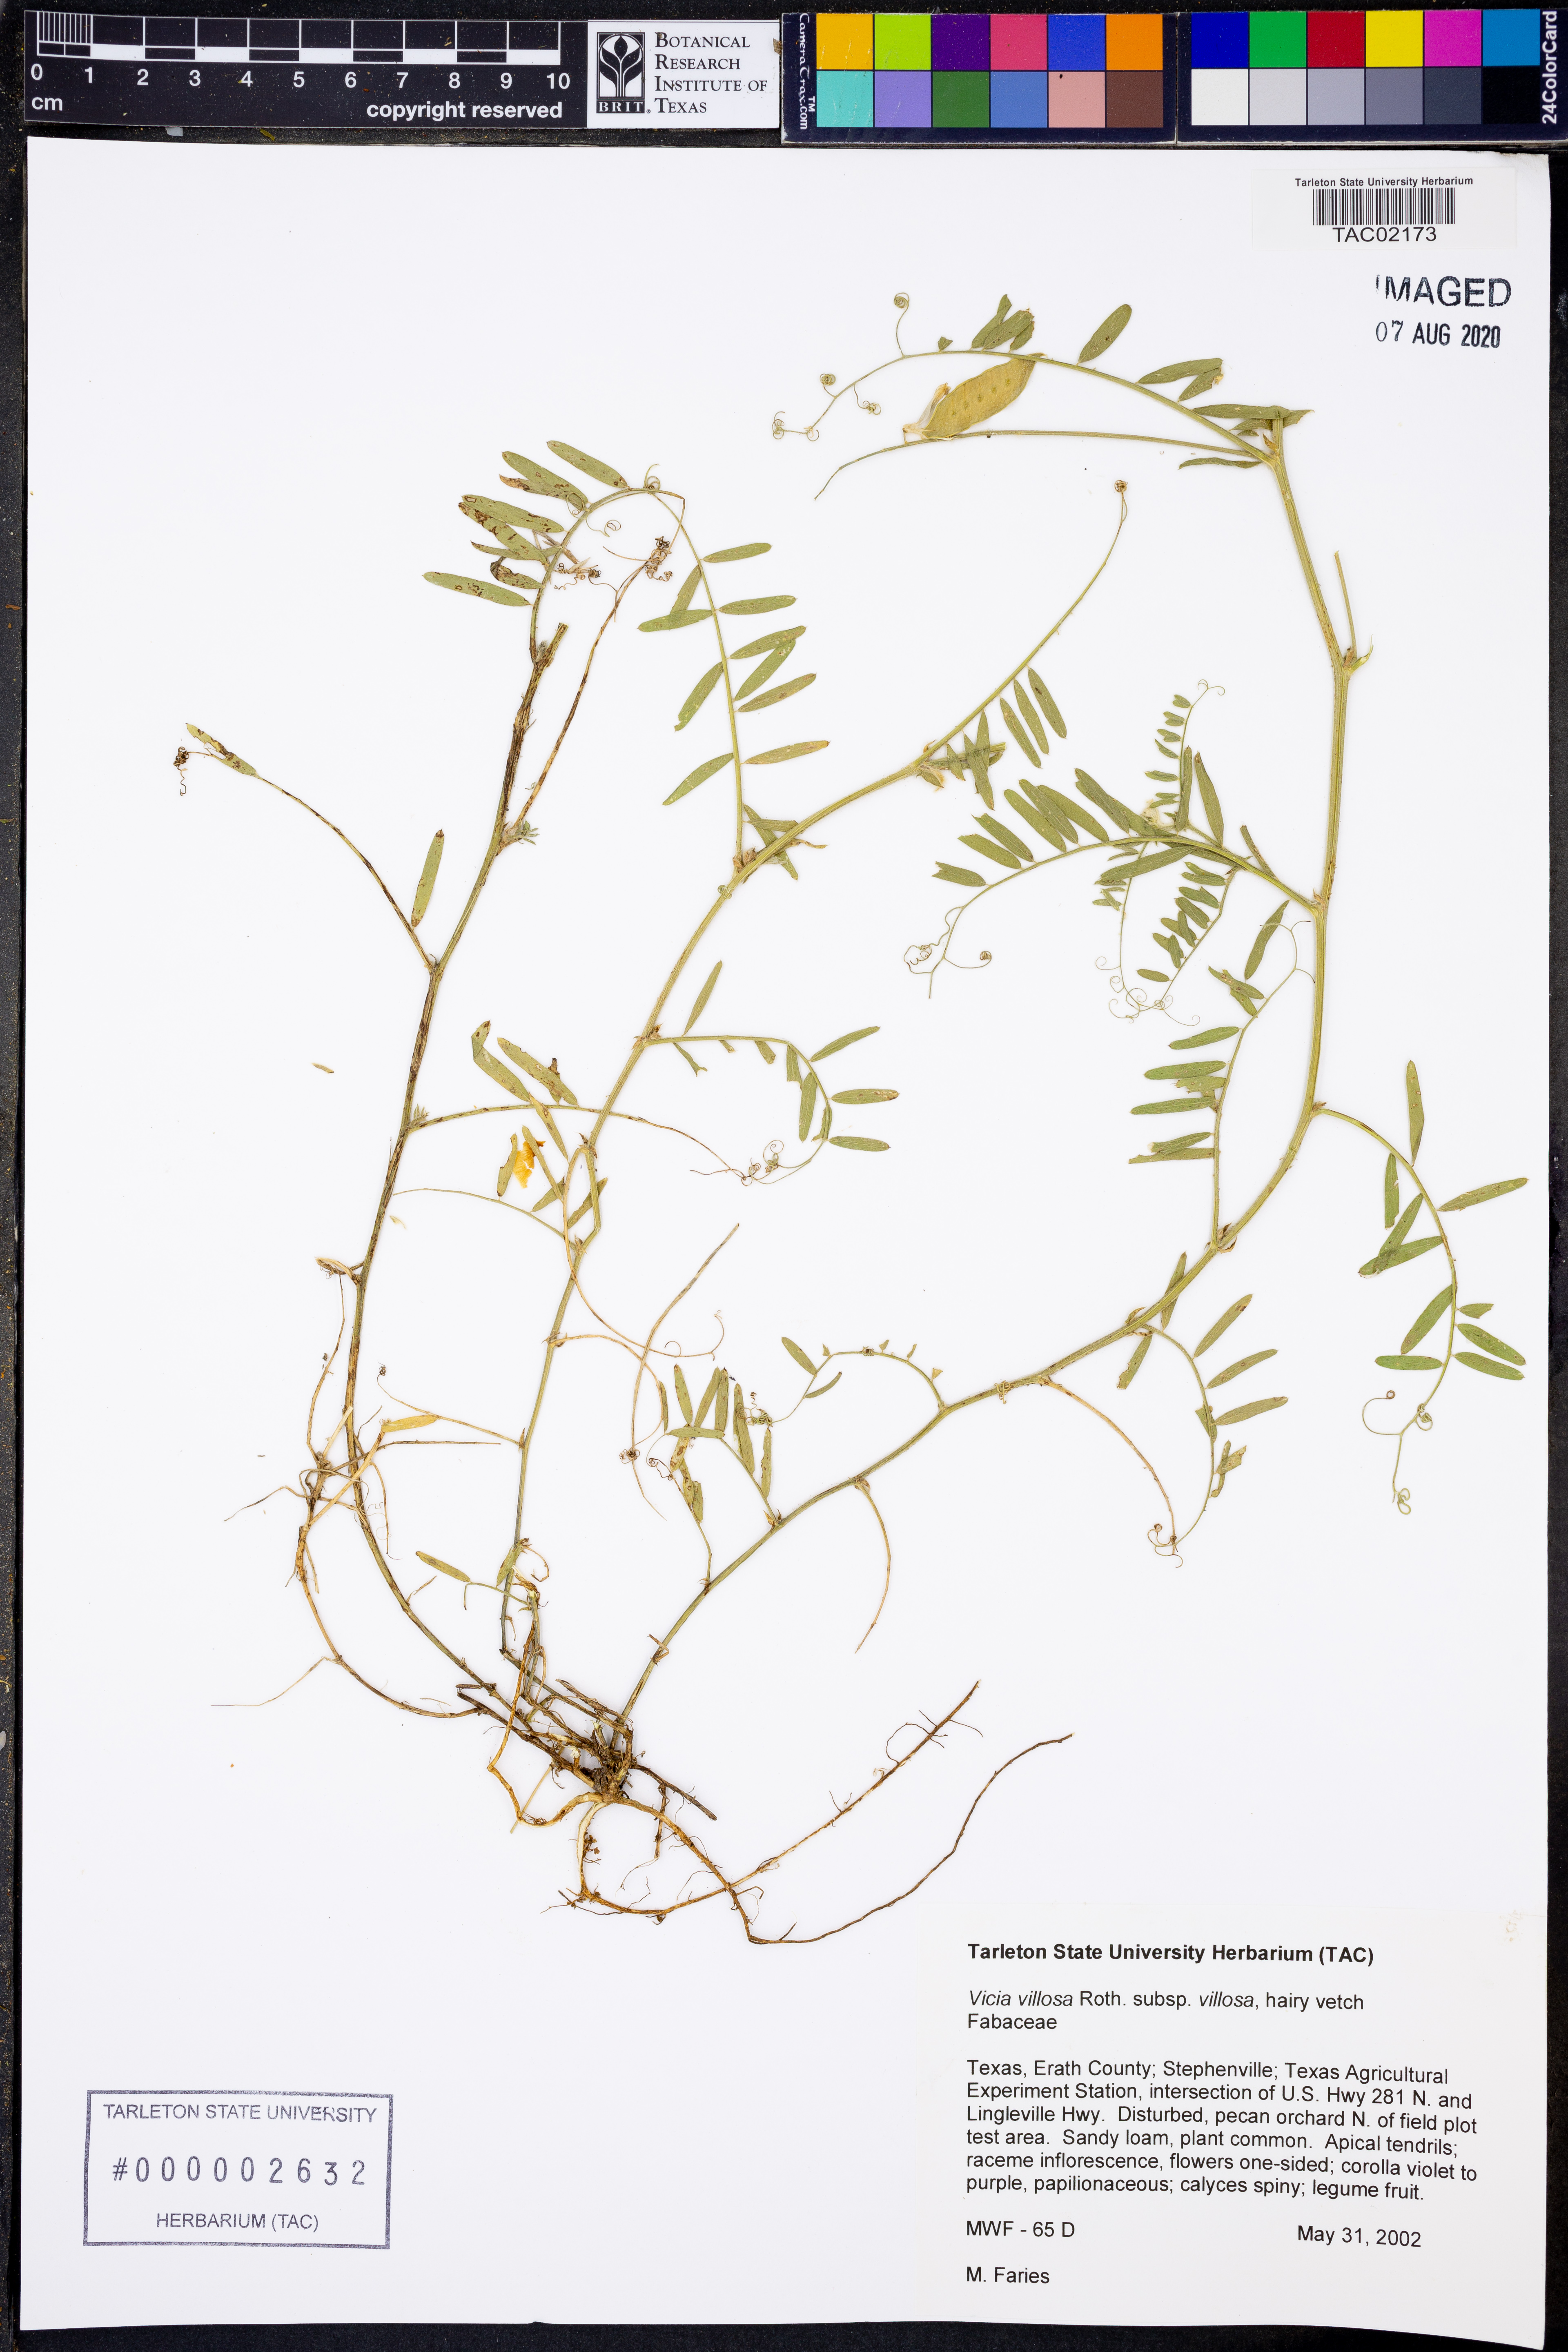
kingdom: Plantae
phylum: Tracheophyta
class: Magnoliopsida
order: Fabales
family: Fabaceae
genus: Vicia
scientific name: Vicia villosa
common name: Fodder vetch
